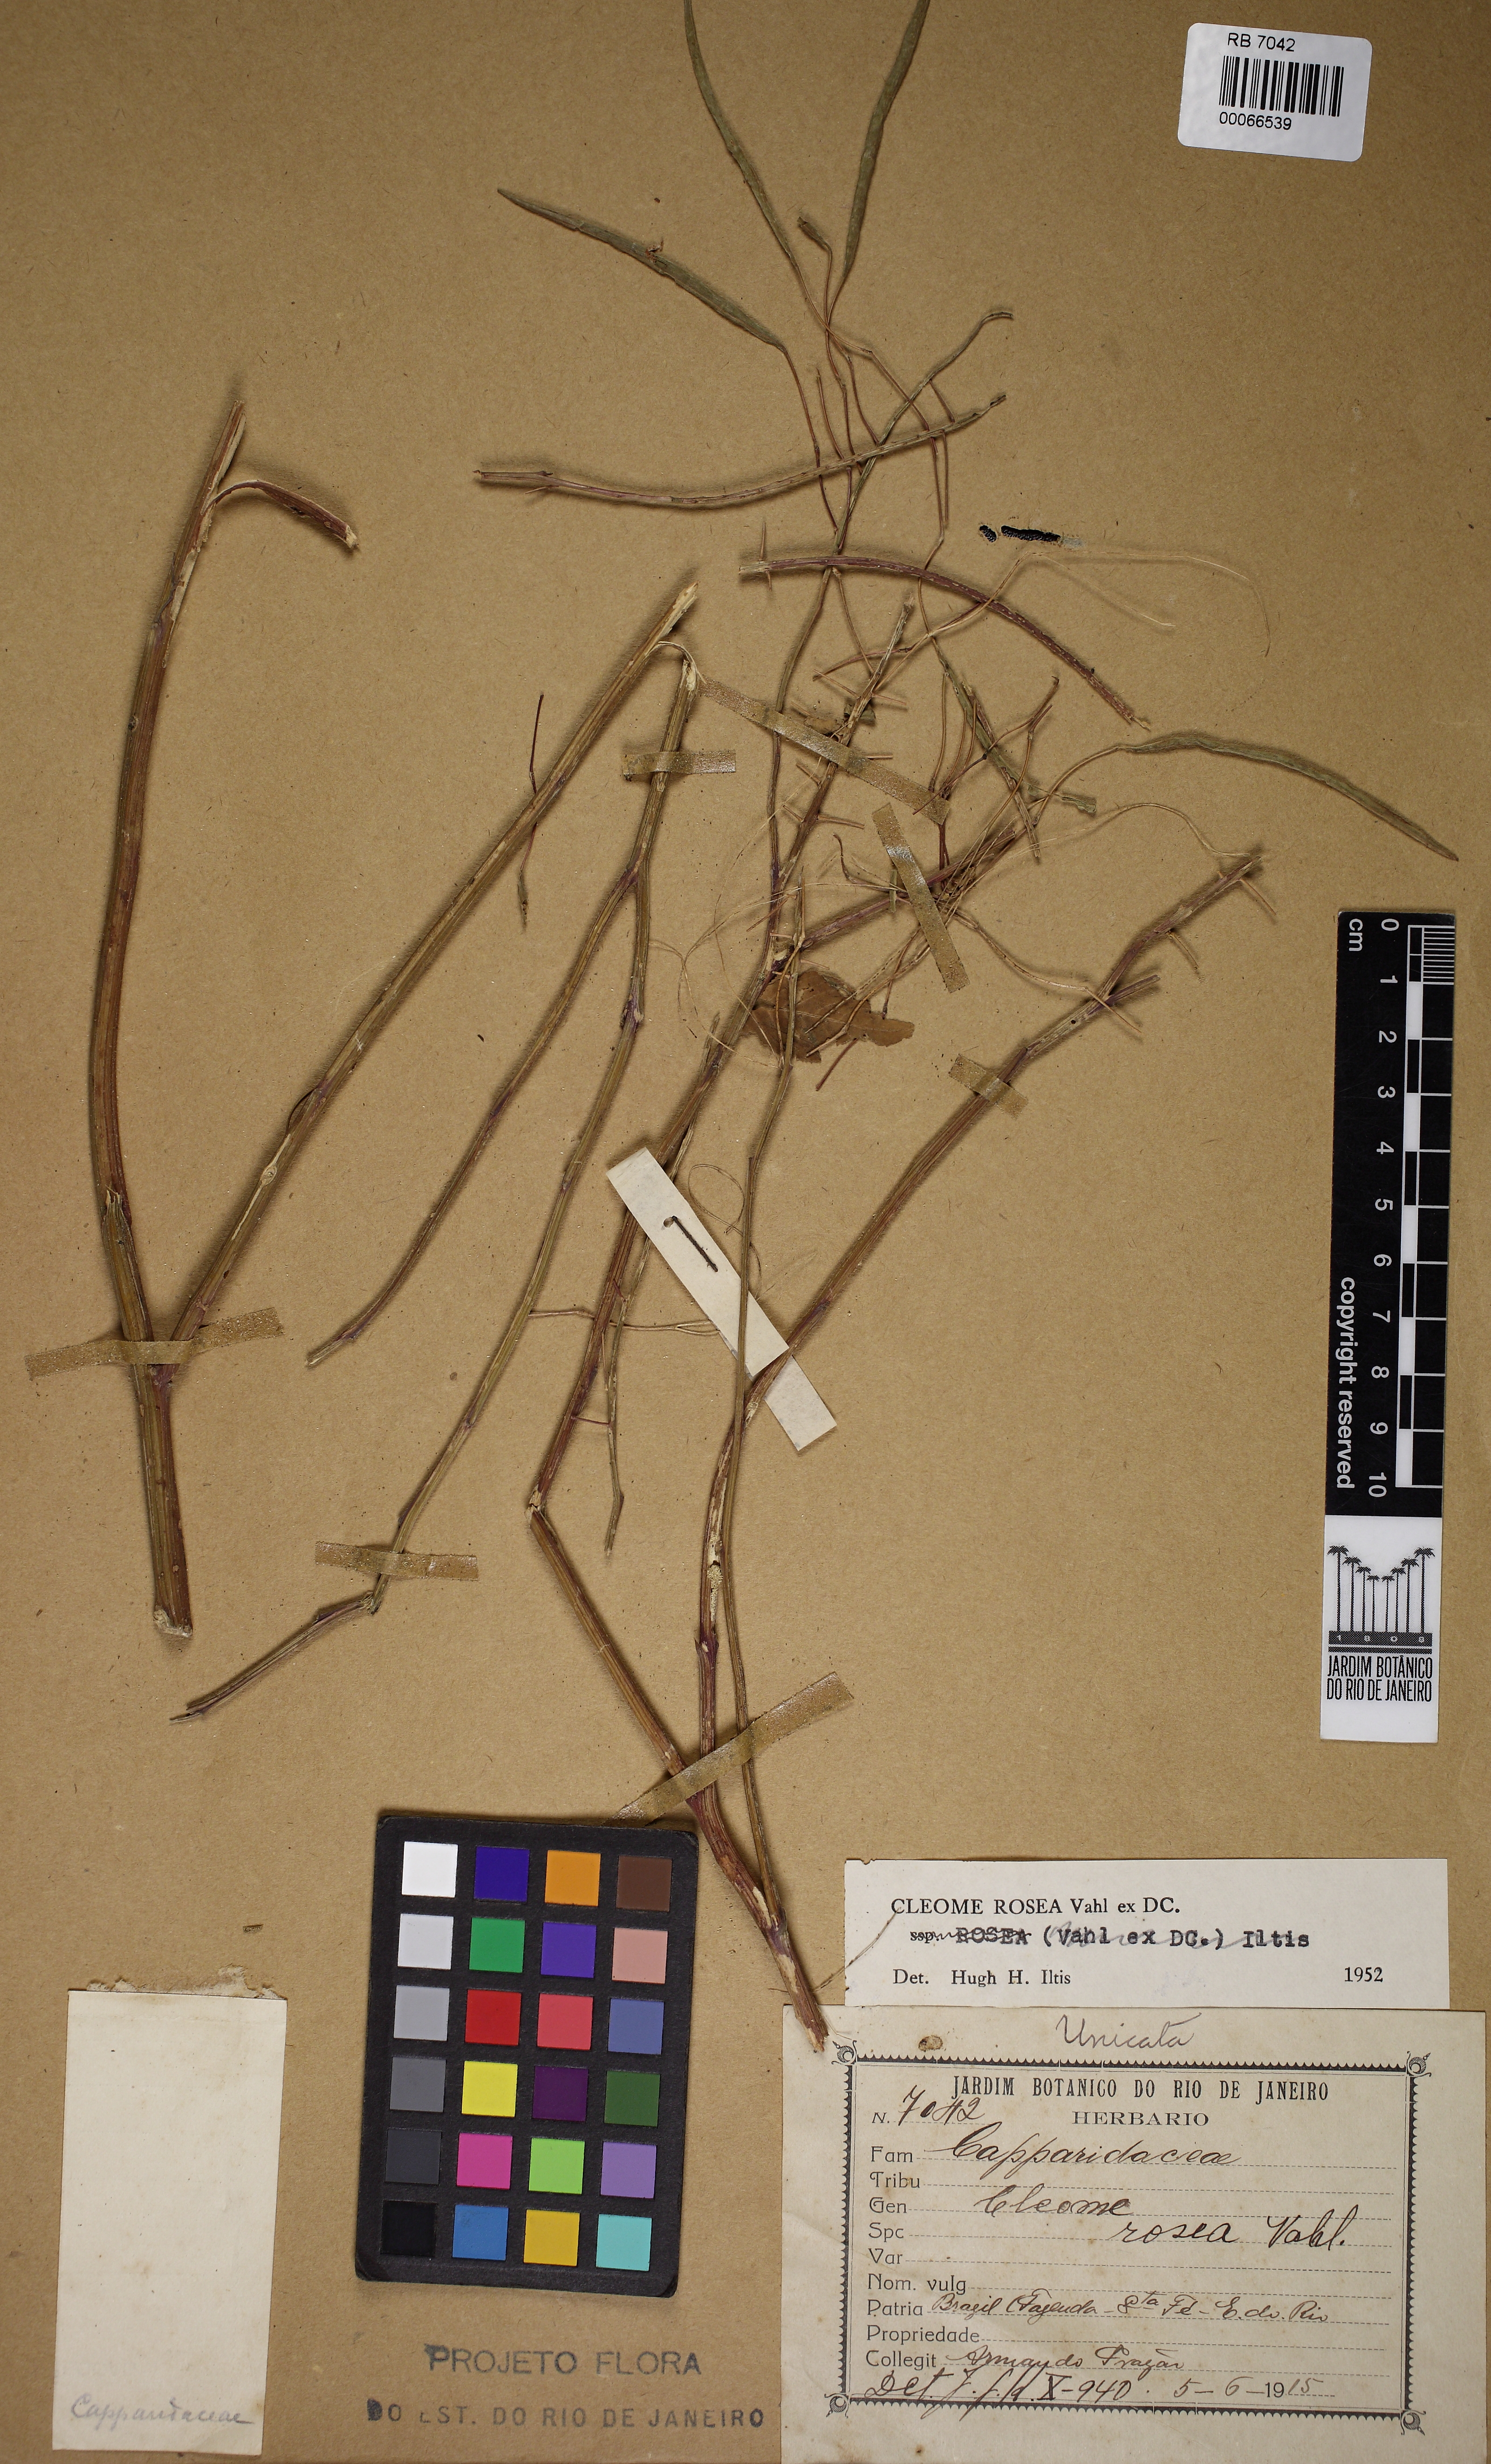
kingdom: Plantae
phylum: Tracheophyta
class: Magnoliopsida
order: Brassicales
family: Cleomaceae
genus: Tarenaya
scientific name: Tarenaya rosea
